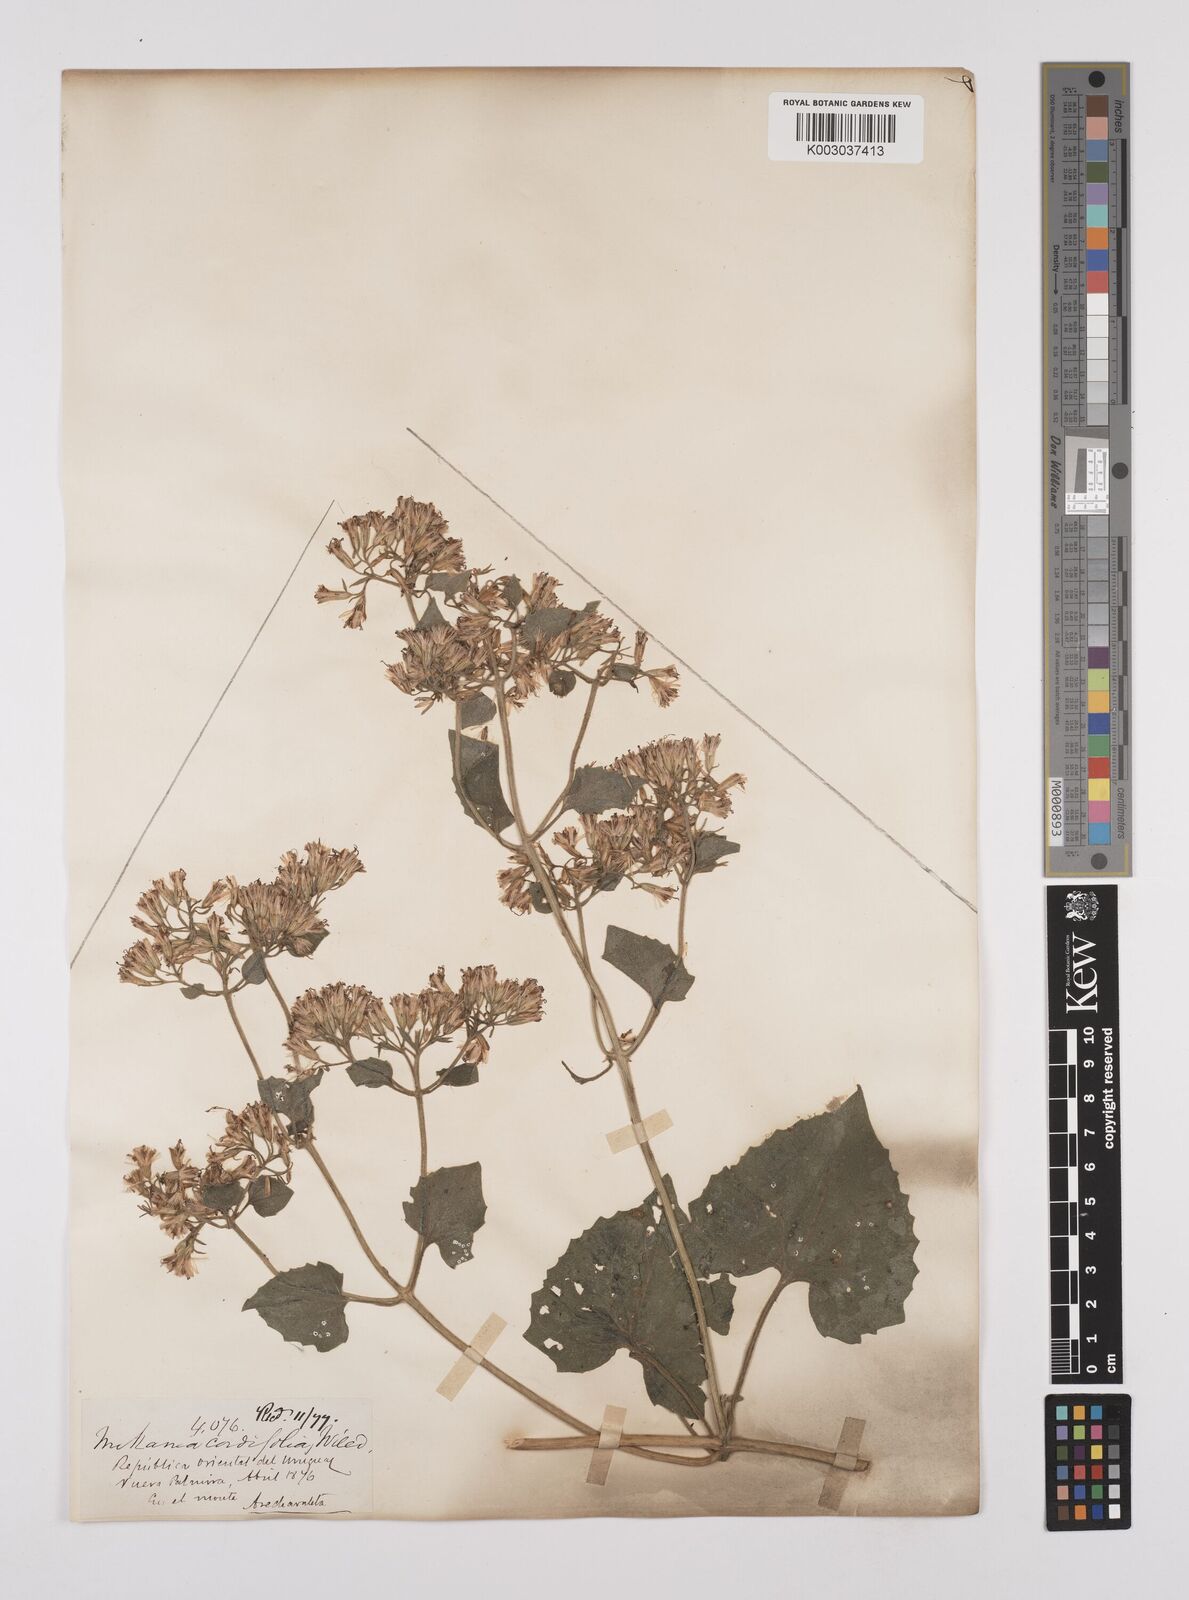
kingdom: Plantae
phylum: Tracheophyta
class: Magnoliopsida
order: Asterales
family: Asteraceae
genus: Mikania
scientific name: Mikania cordifolia
